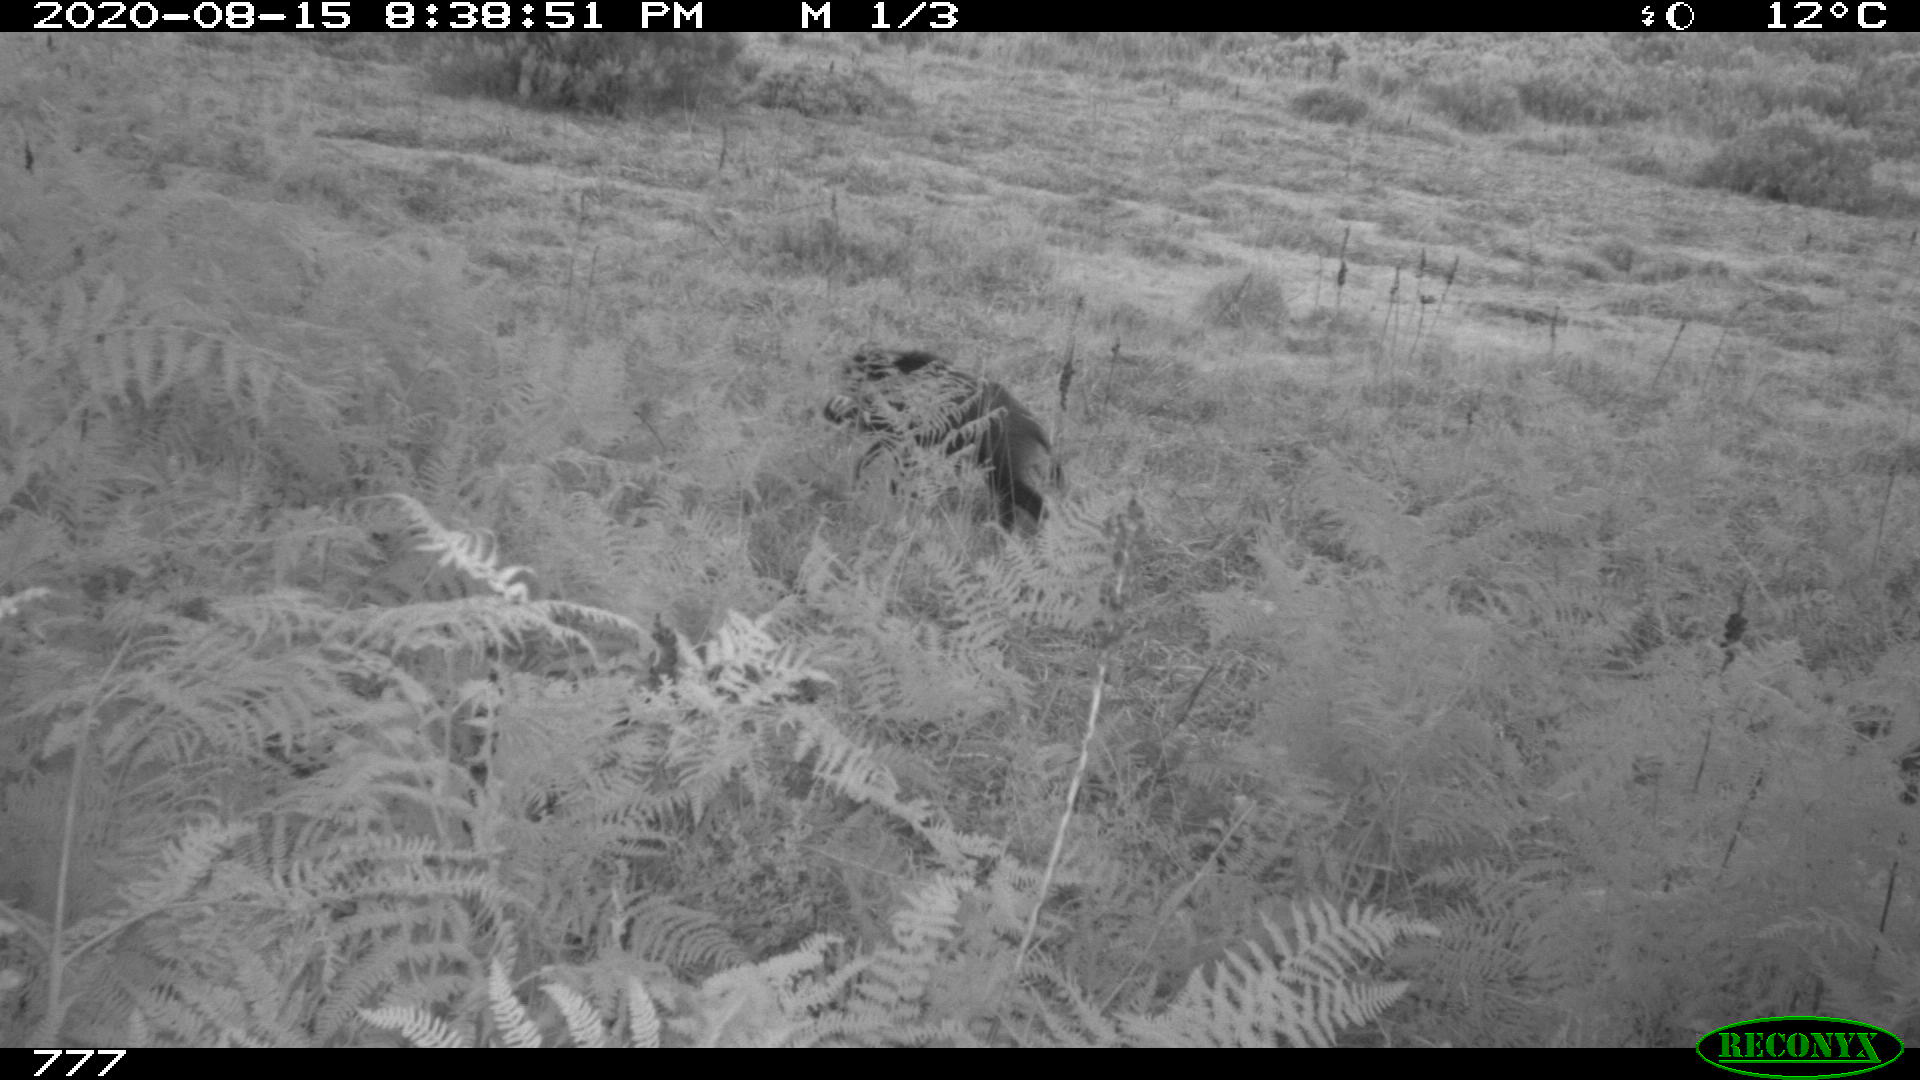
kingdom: Animalia
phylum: Chordata
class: Mammalia
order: Artiodactyla
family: Suidae
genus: Sus
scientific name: Sus scrofa
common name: Wild boar
